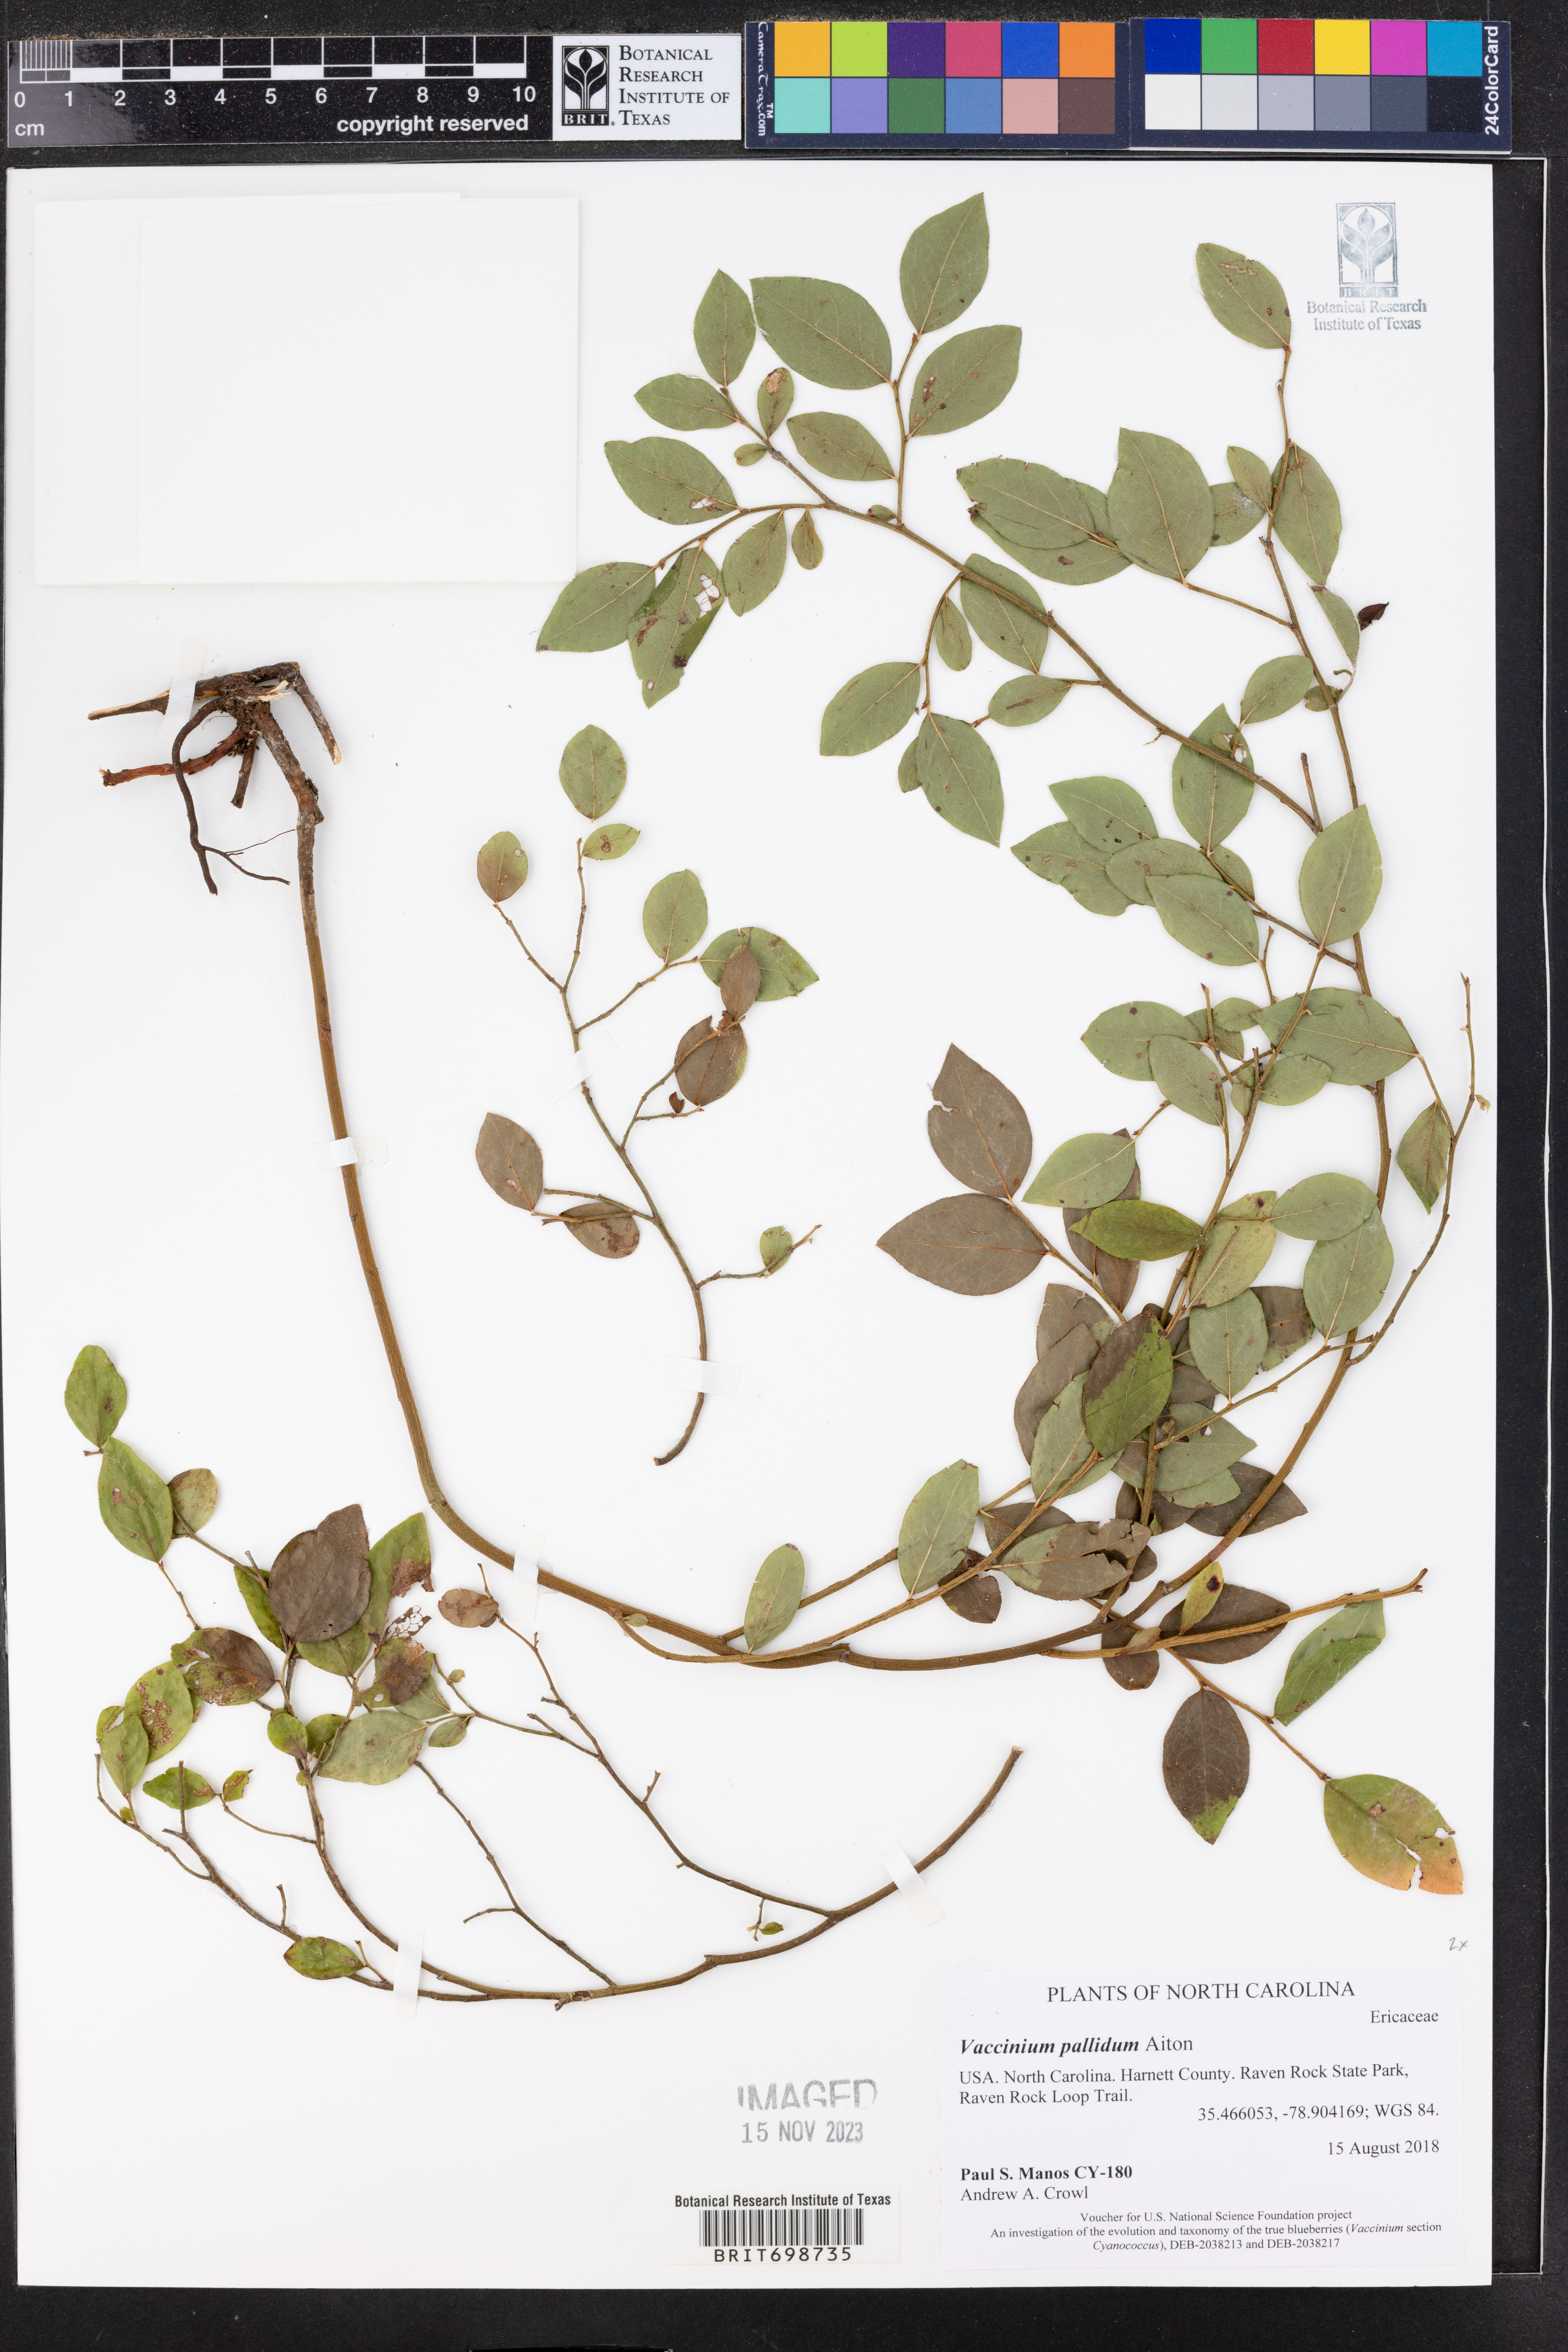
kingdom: Plantae
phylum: Tracheophyta
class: Magnoliopsida
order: Ericales
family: Ericaceae
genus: Vaccinium
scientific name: Vaccinium pallidum
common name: Blue ridge blueberry
